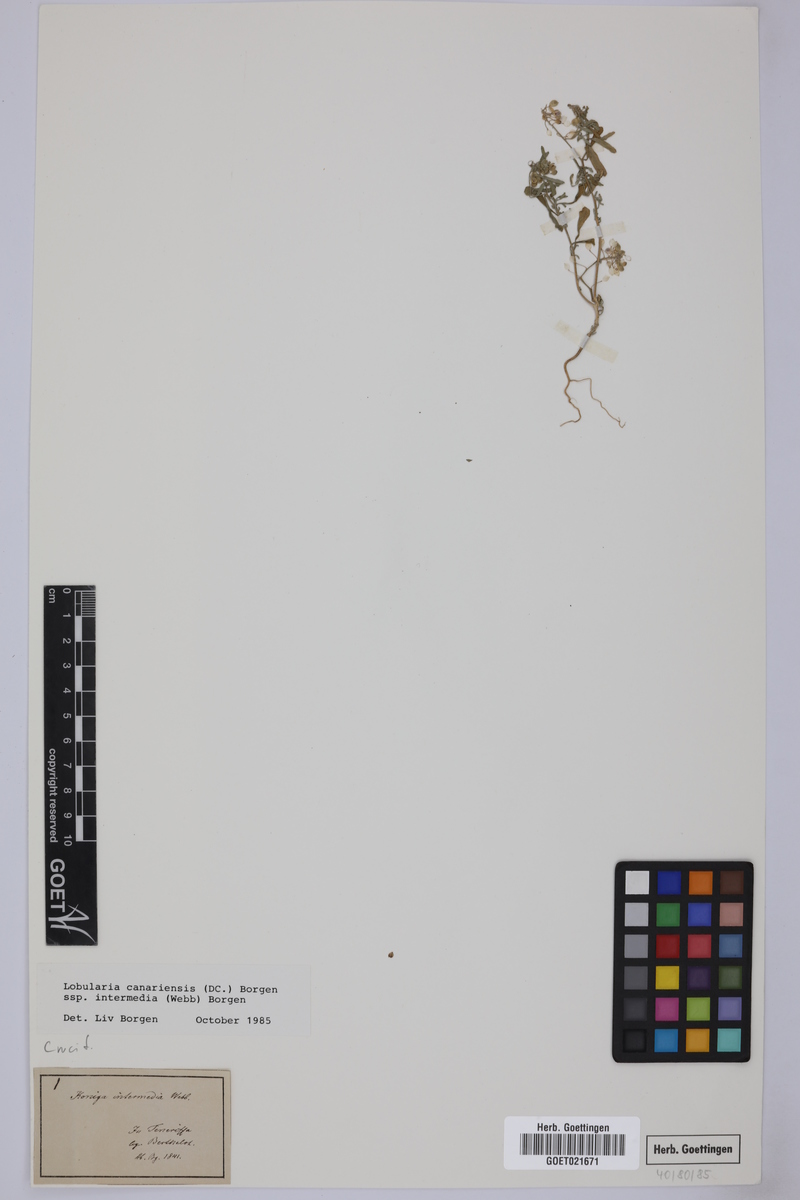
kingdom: Plantae
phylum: Tracheophyta
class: Magnoliopsida
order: Brassicales
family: Brassicaceae
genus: Lobularia
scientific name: Lobularia canariensis
